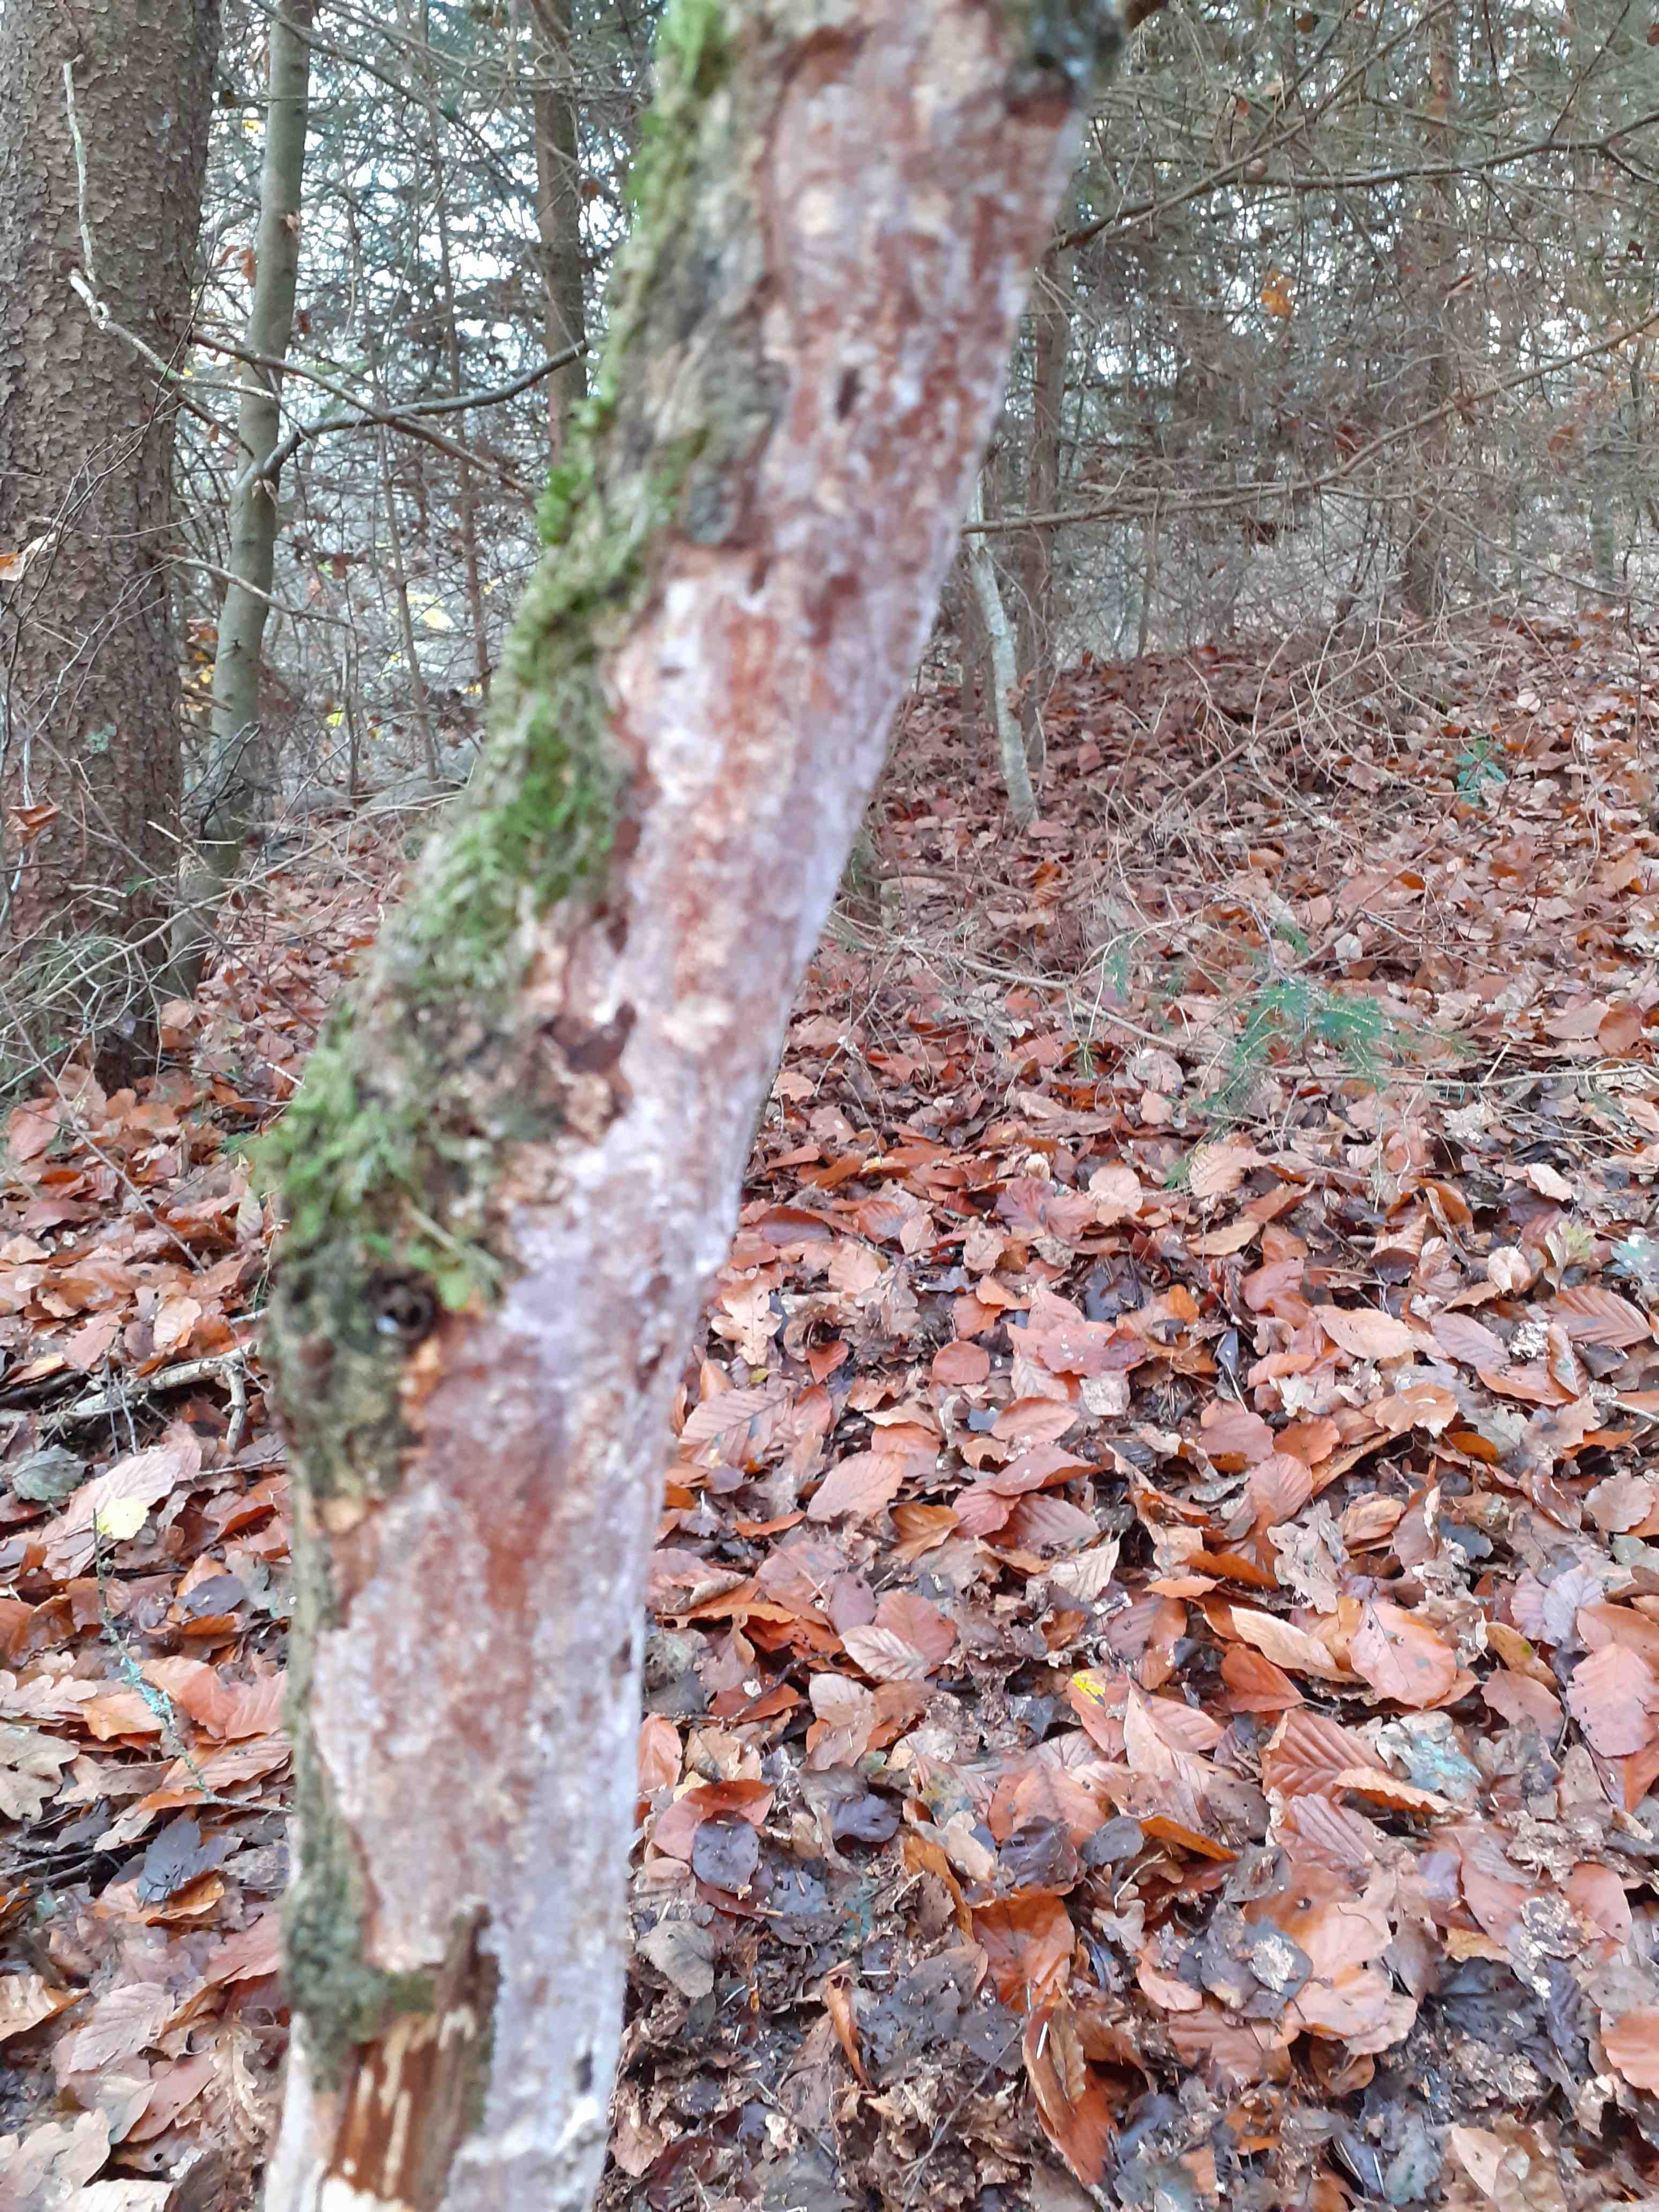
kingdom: Fungi
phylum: Basidiomycota
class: Agaricomycetes
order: Corticiales
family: Vuilleminiaceae
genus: Vuilleminia
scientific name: Vuilleminia comedens
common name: almindelig barksprænger
